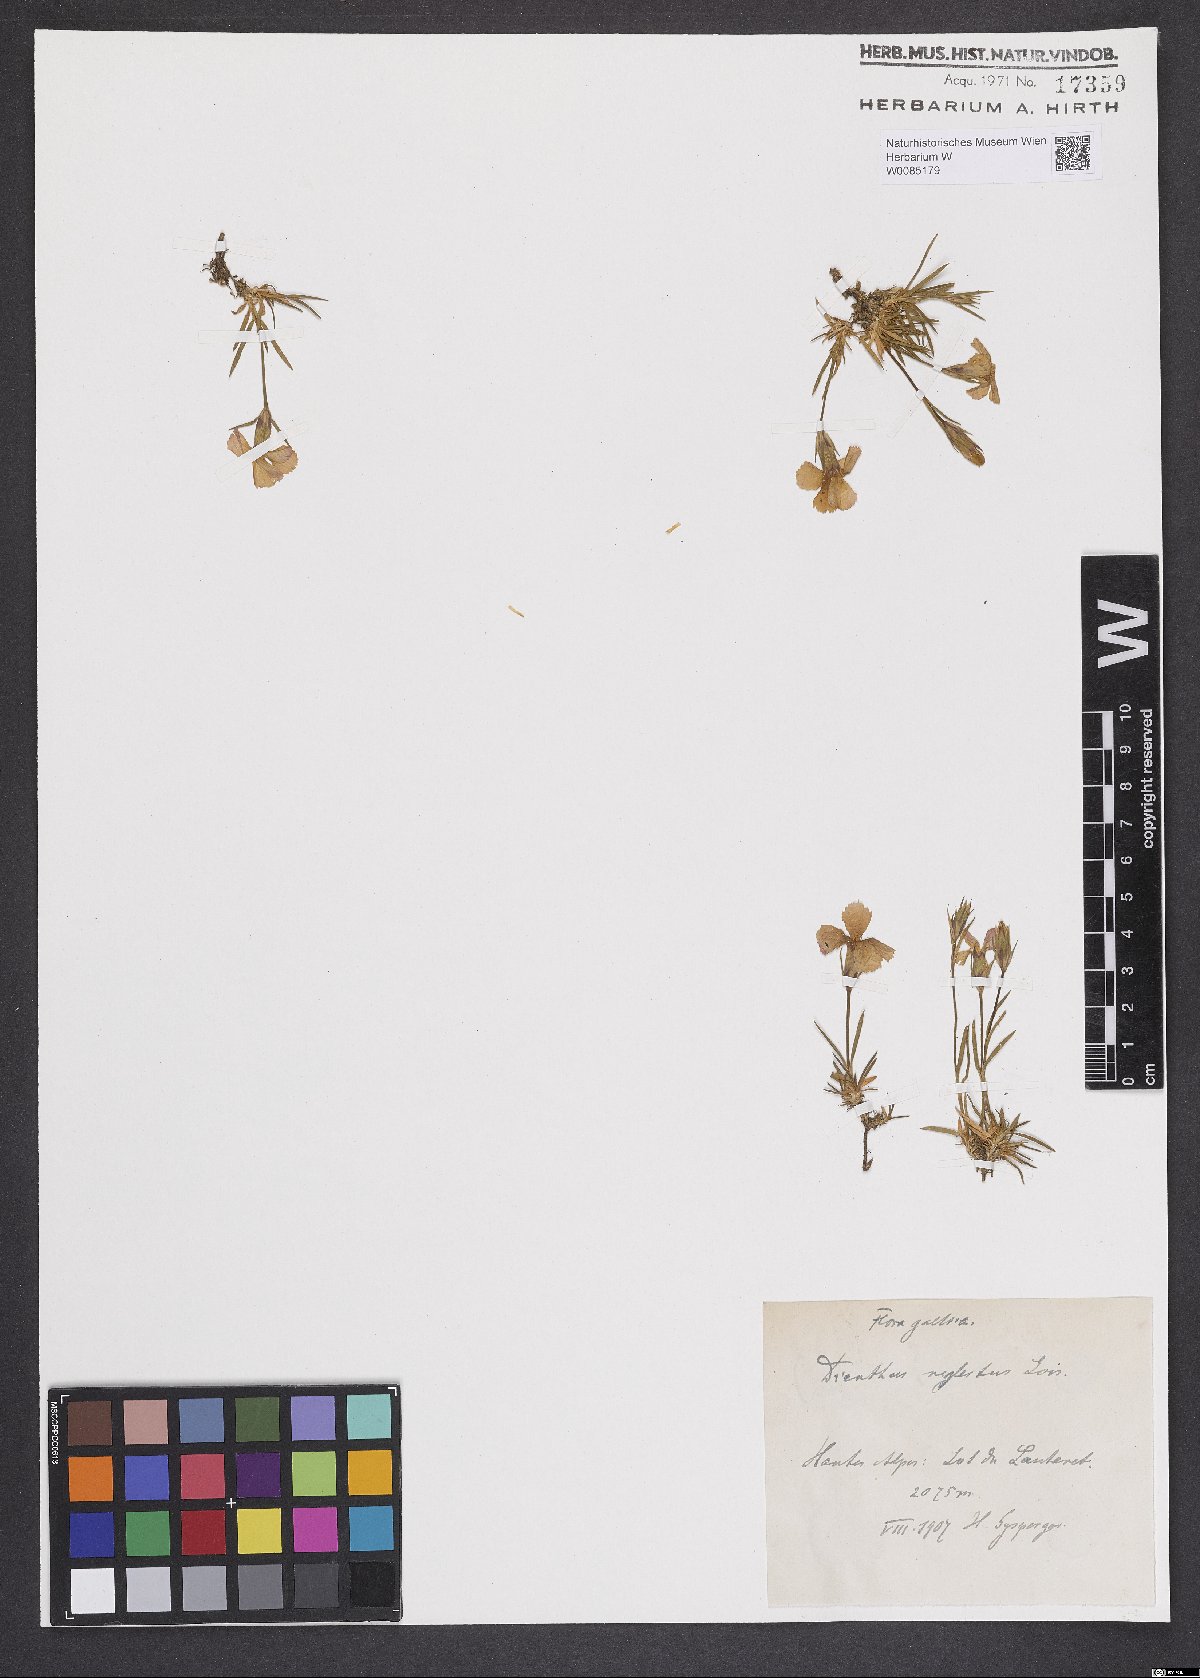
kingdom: Plantae
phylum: Tracheophyta
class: Magnoliopsida
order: Caryophyllales
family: Caryophyllaceae
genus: Dianthus
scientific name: Dianthus pavonius
